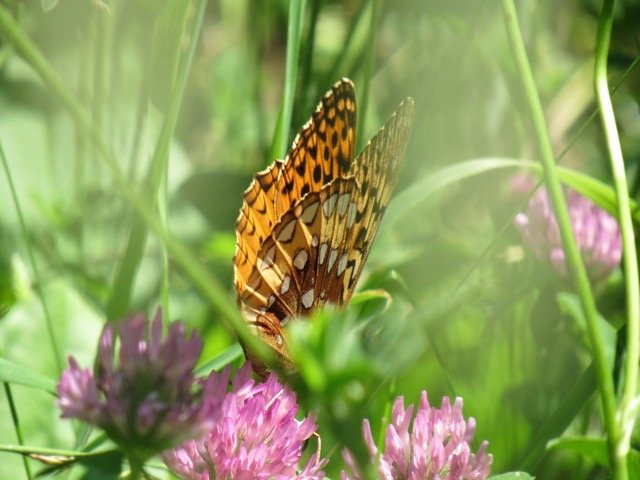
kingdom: Animalia
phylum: Arthropoda
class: Insecta
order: Lepidoptera
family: Nymphalidae
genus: Speyeria
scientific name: Speyeria cybele
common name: Great Spangled Fritillary
